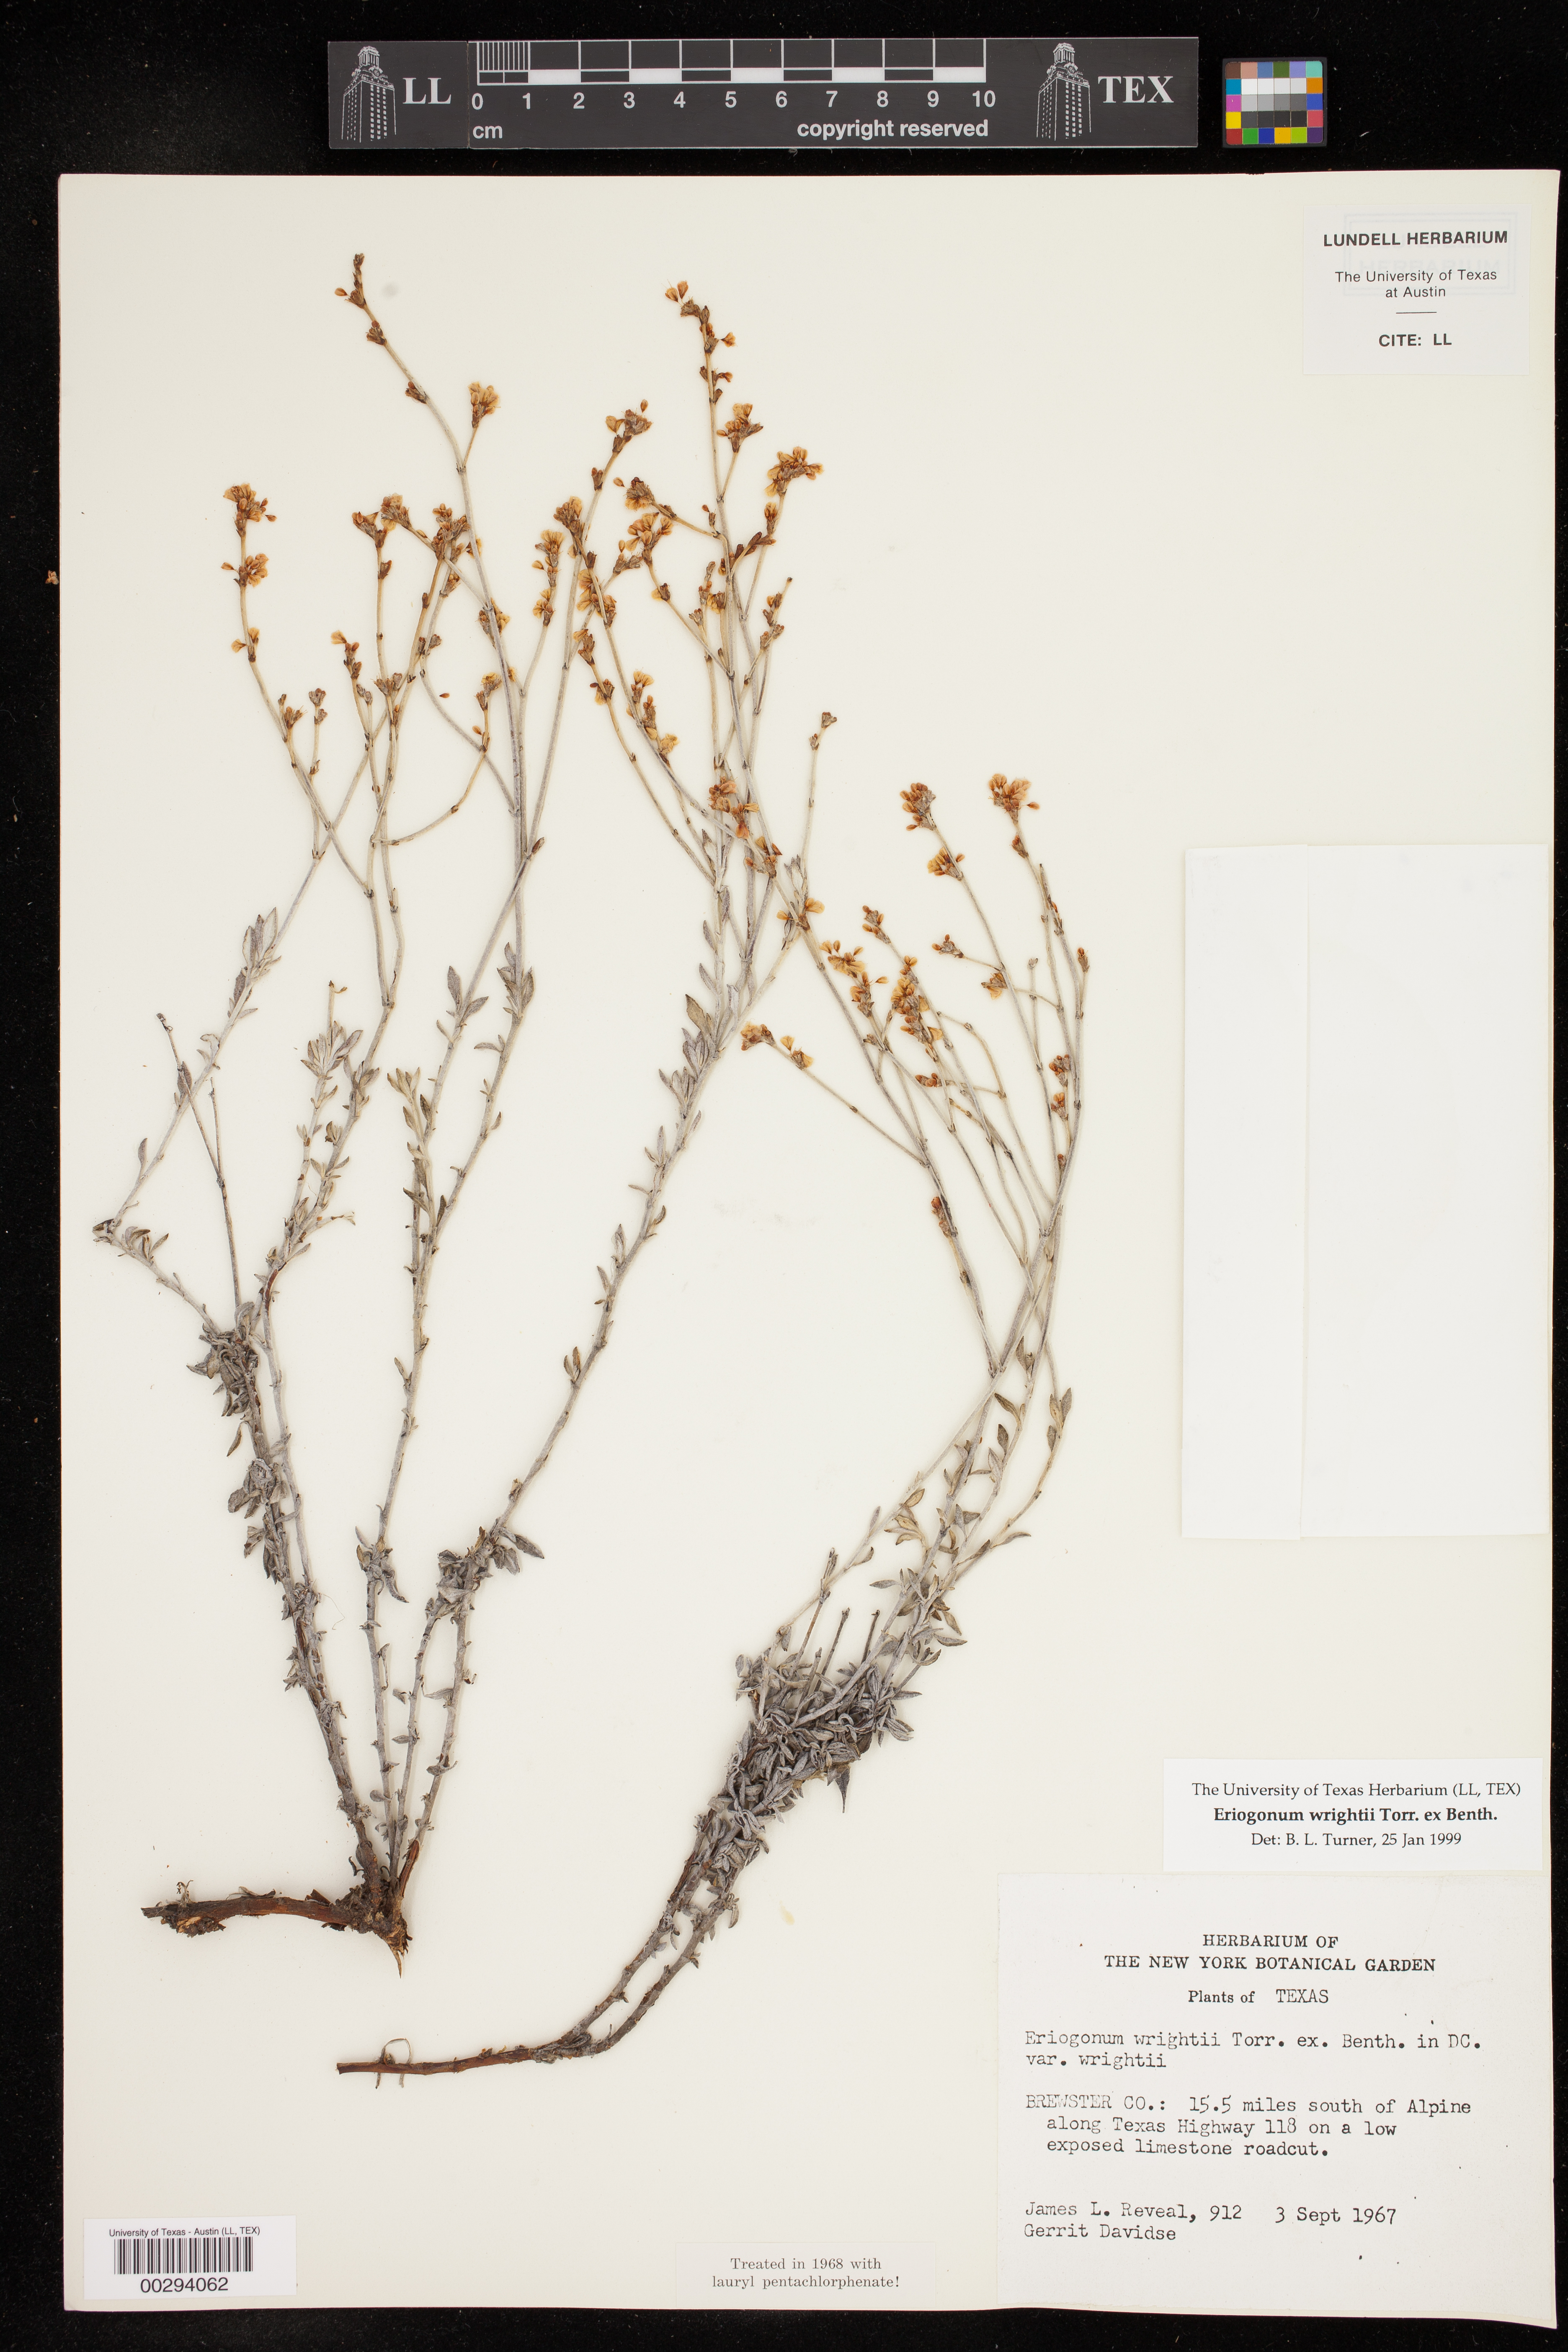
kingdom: Plantae
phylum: Tracheophyta
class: Magnoliopsida
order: Caryophyllales
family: Polygonaceae
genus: Eriogonum
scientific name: Eriogonum wrightii
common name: Bastard-sage
